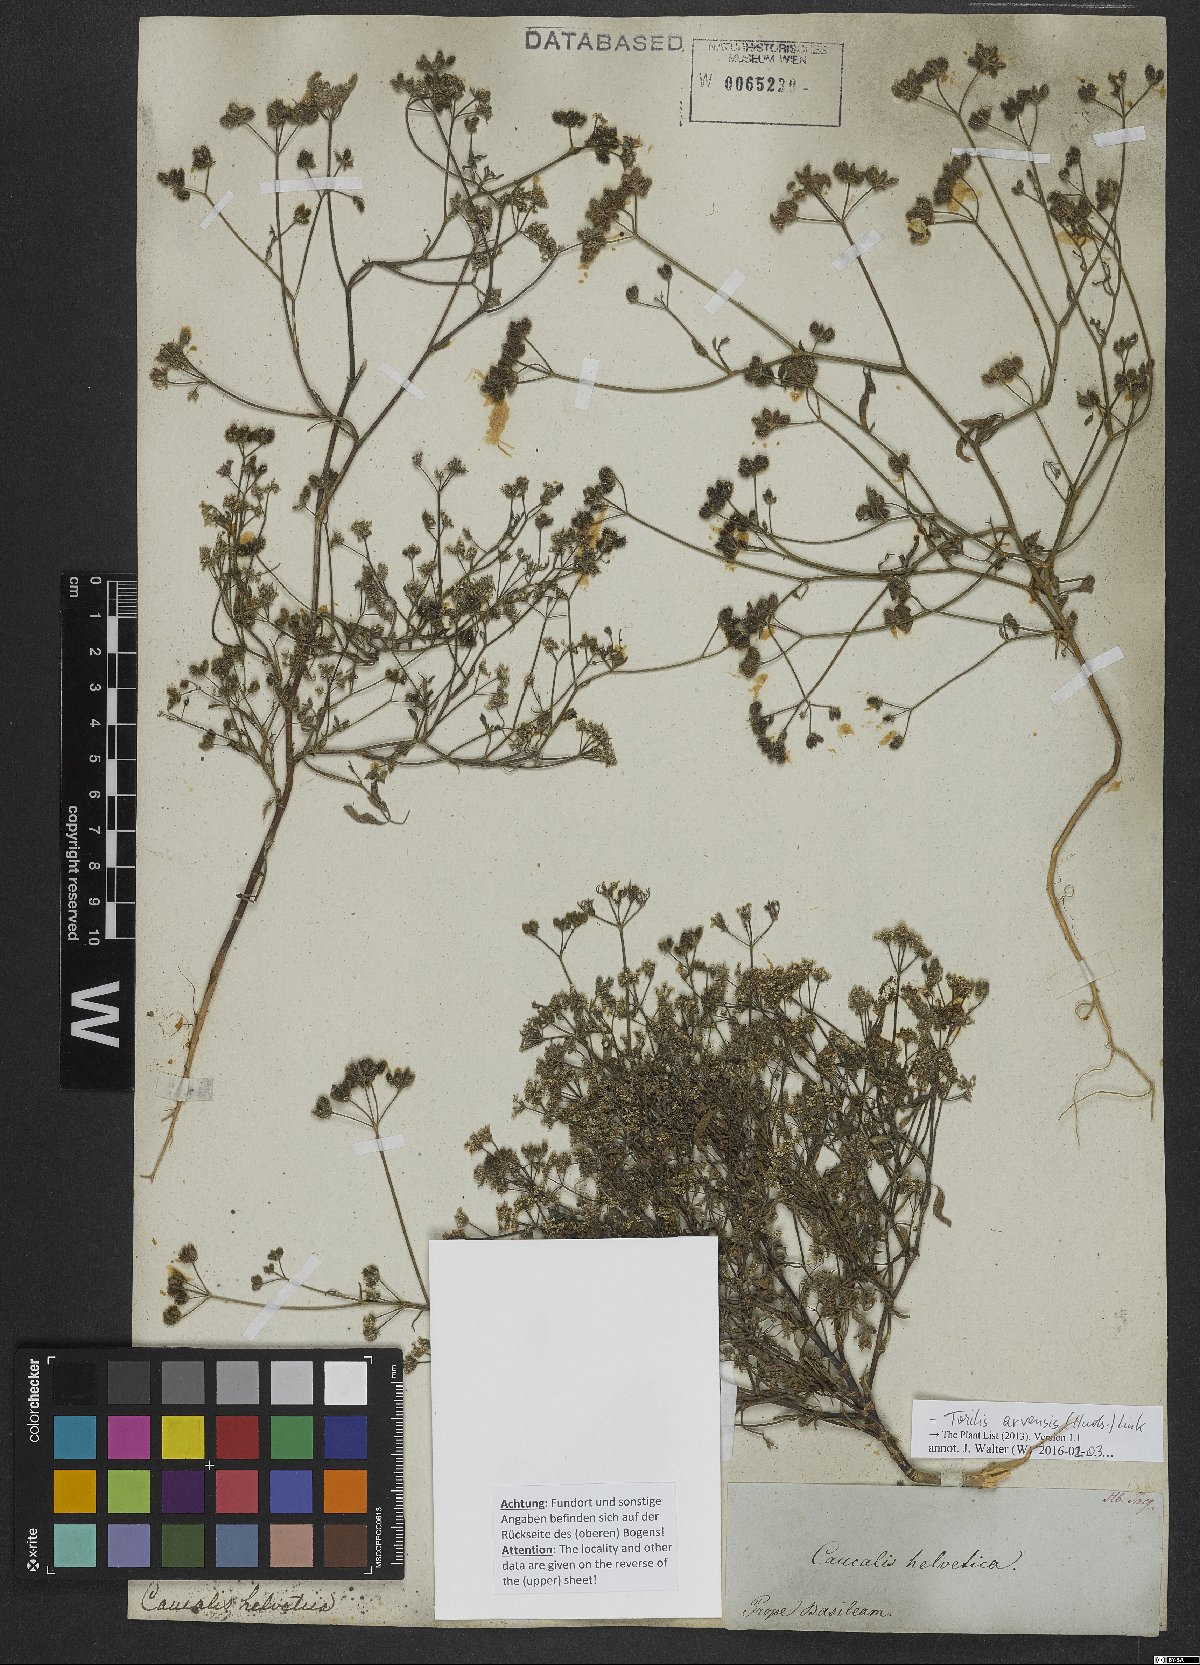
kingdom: Plantae
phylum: Tracheophyta
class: Magnoliopsida
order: Apiales
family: Apiaceae
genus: Torilis
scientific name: Torilis arvensis
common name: Spreading hedge-parsley
